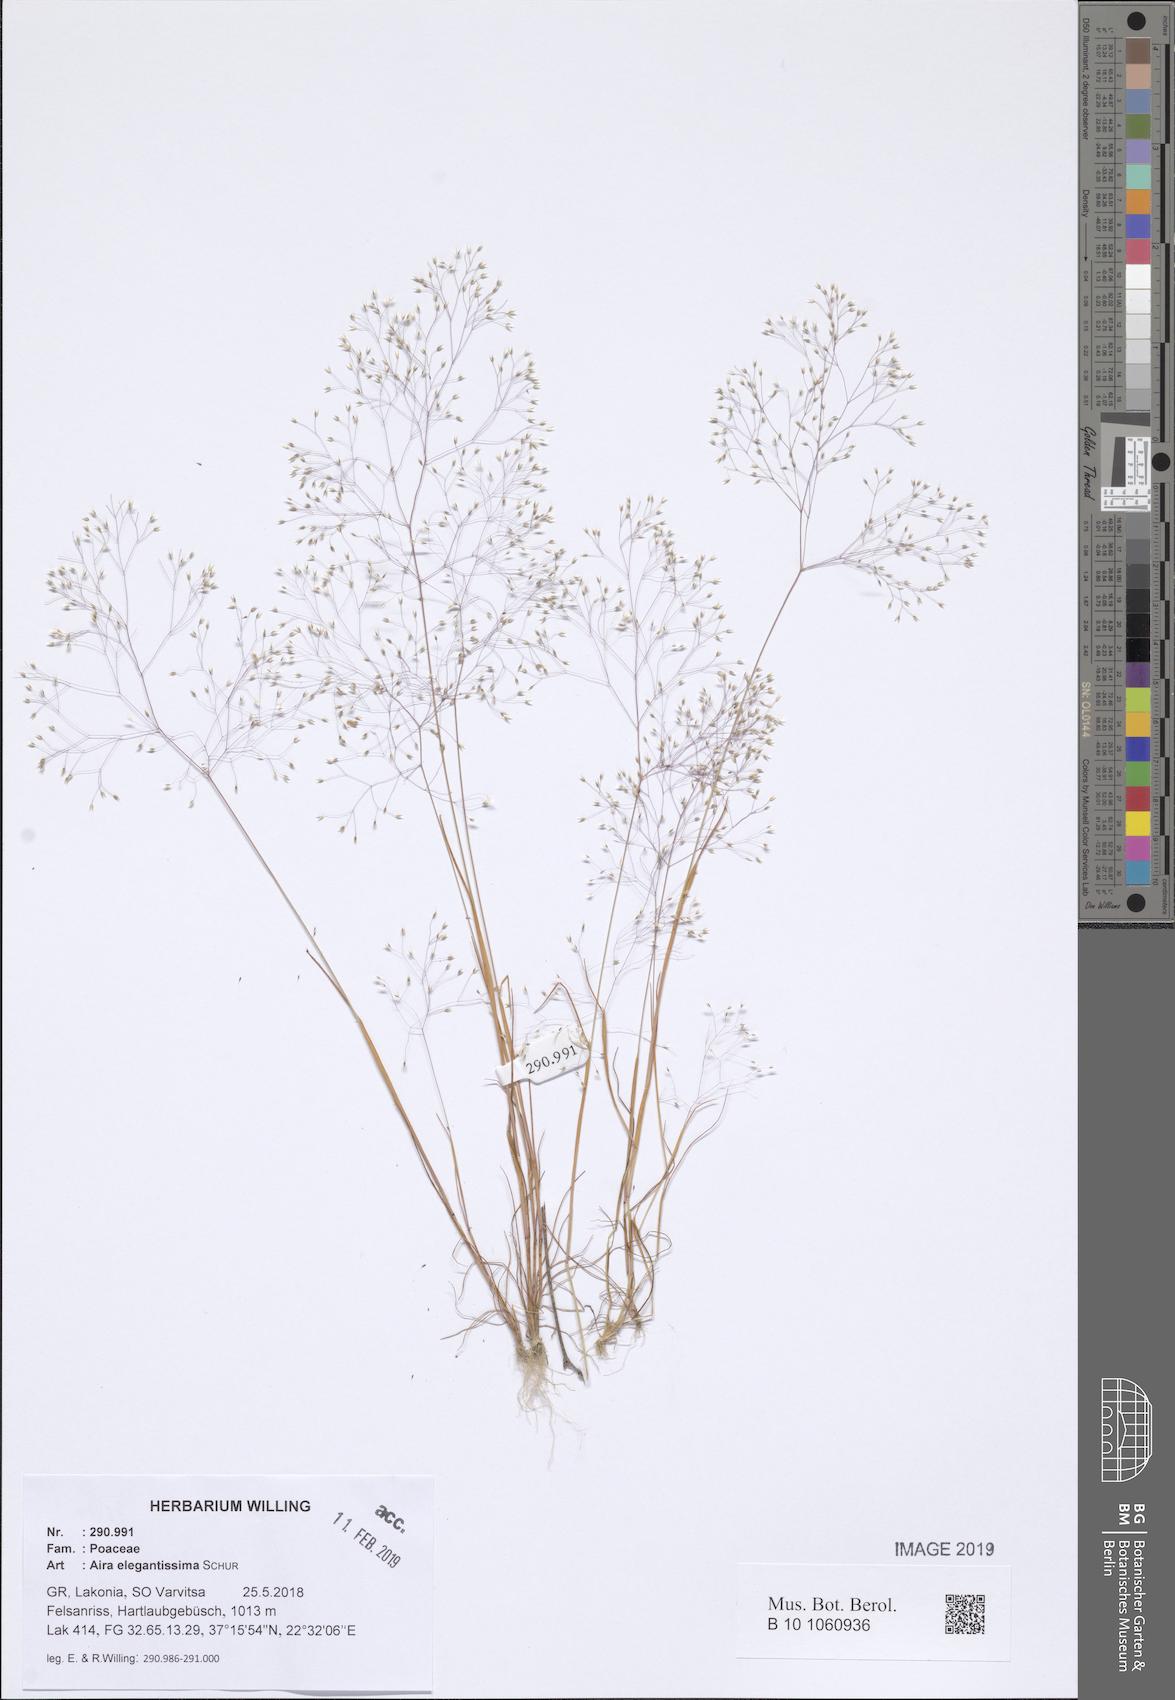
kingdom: Plantae
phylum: Tracheophyta
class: Liliopsida
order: Poales
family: Poaceae
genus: Aira
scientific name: Aira elegans
